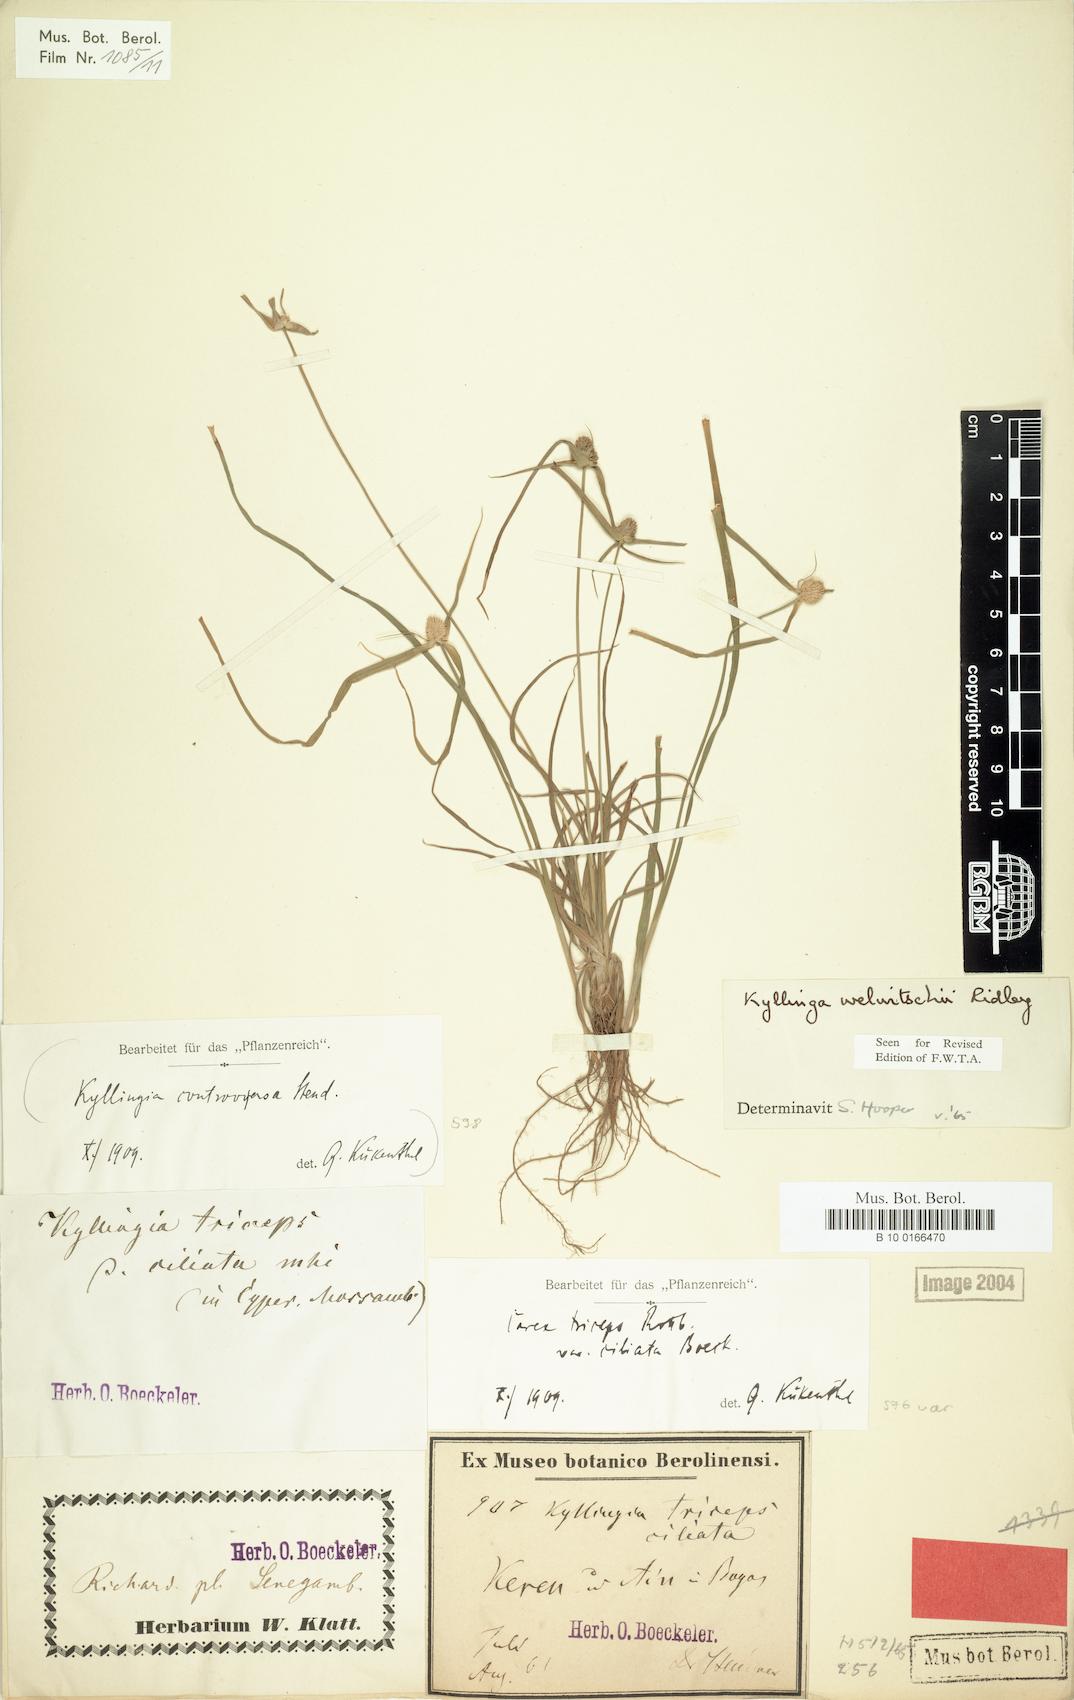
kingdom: Plantae
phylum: Tracheophyta
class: Liliopsida
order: Poales
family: Cyperaceae
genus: Cyperus
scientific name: Cyperus welwitschii
